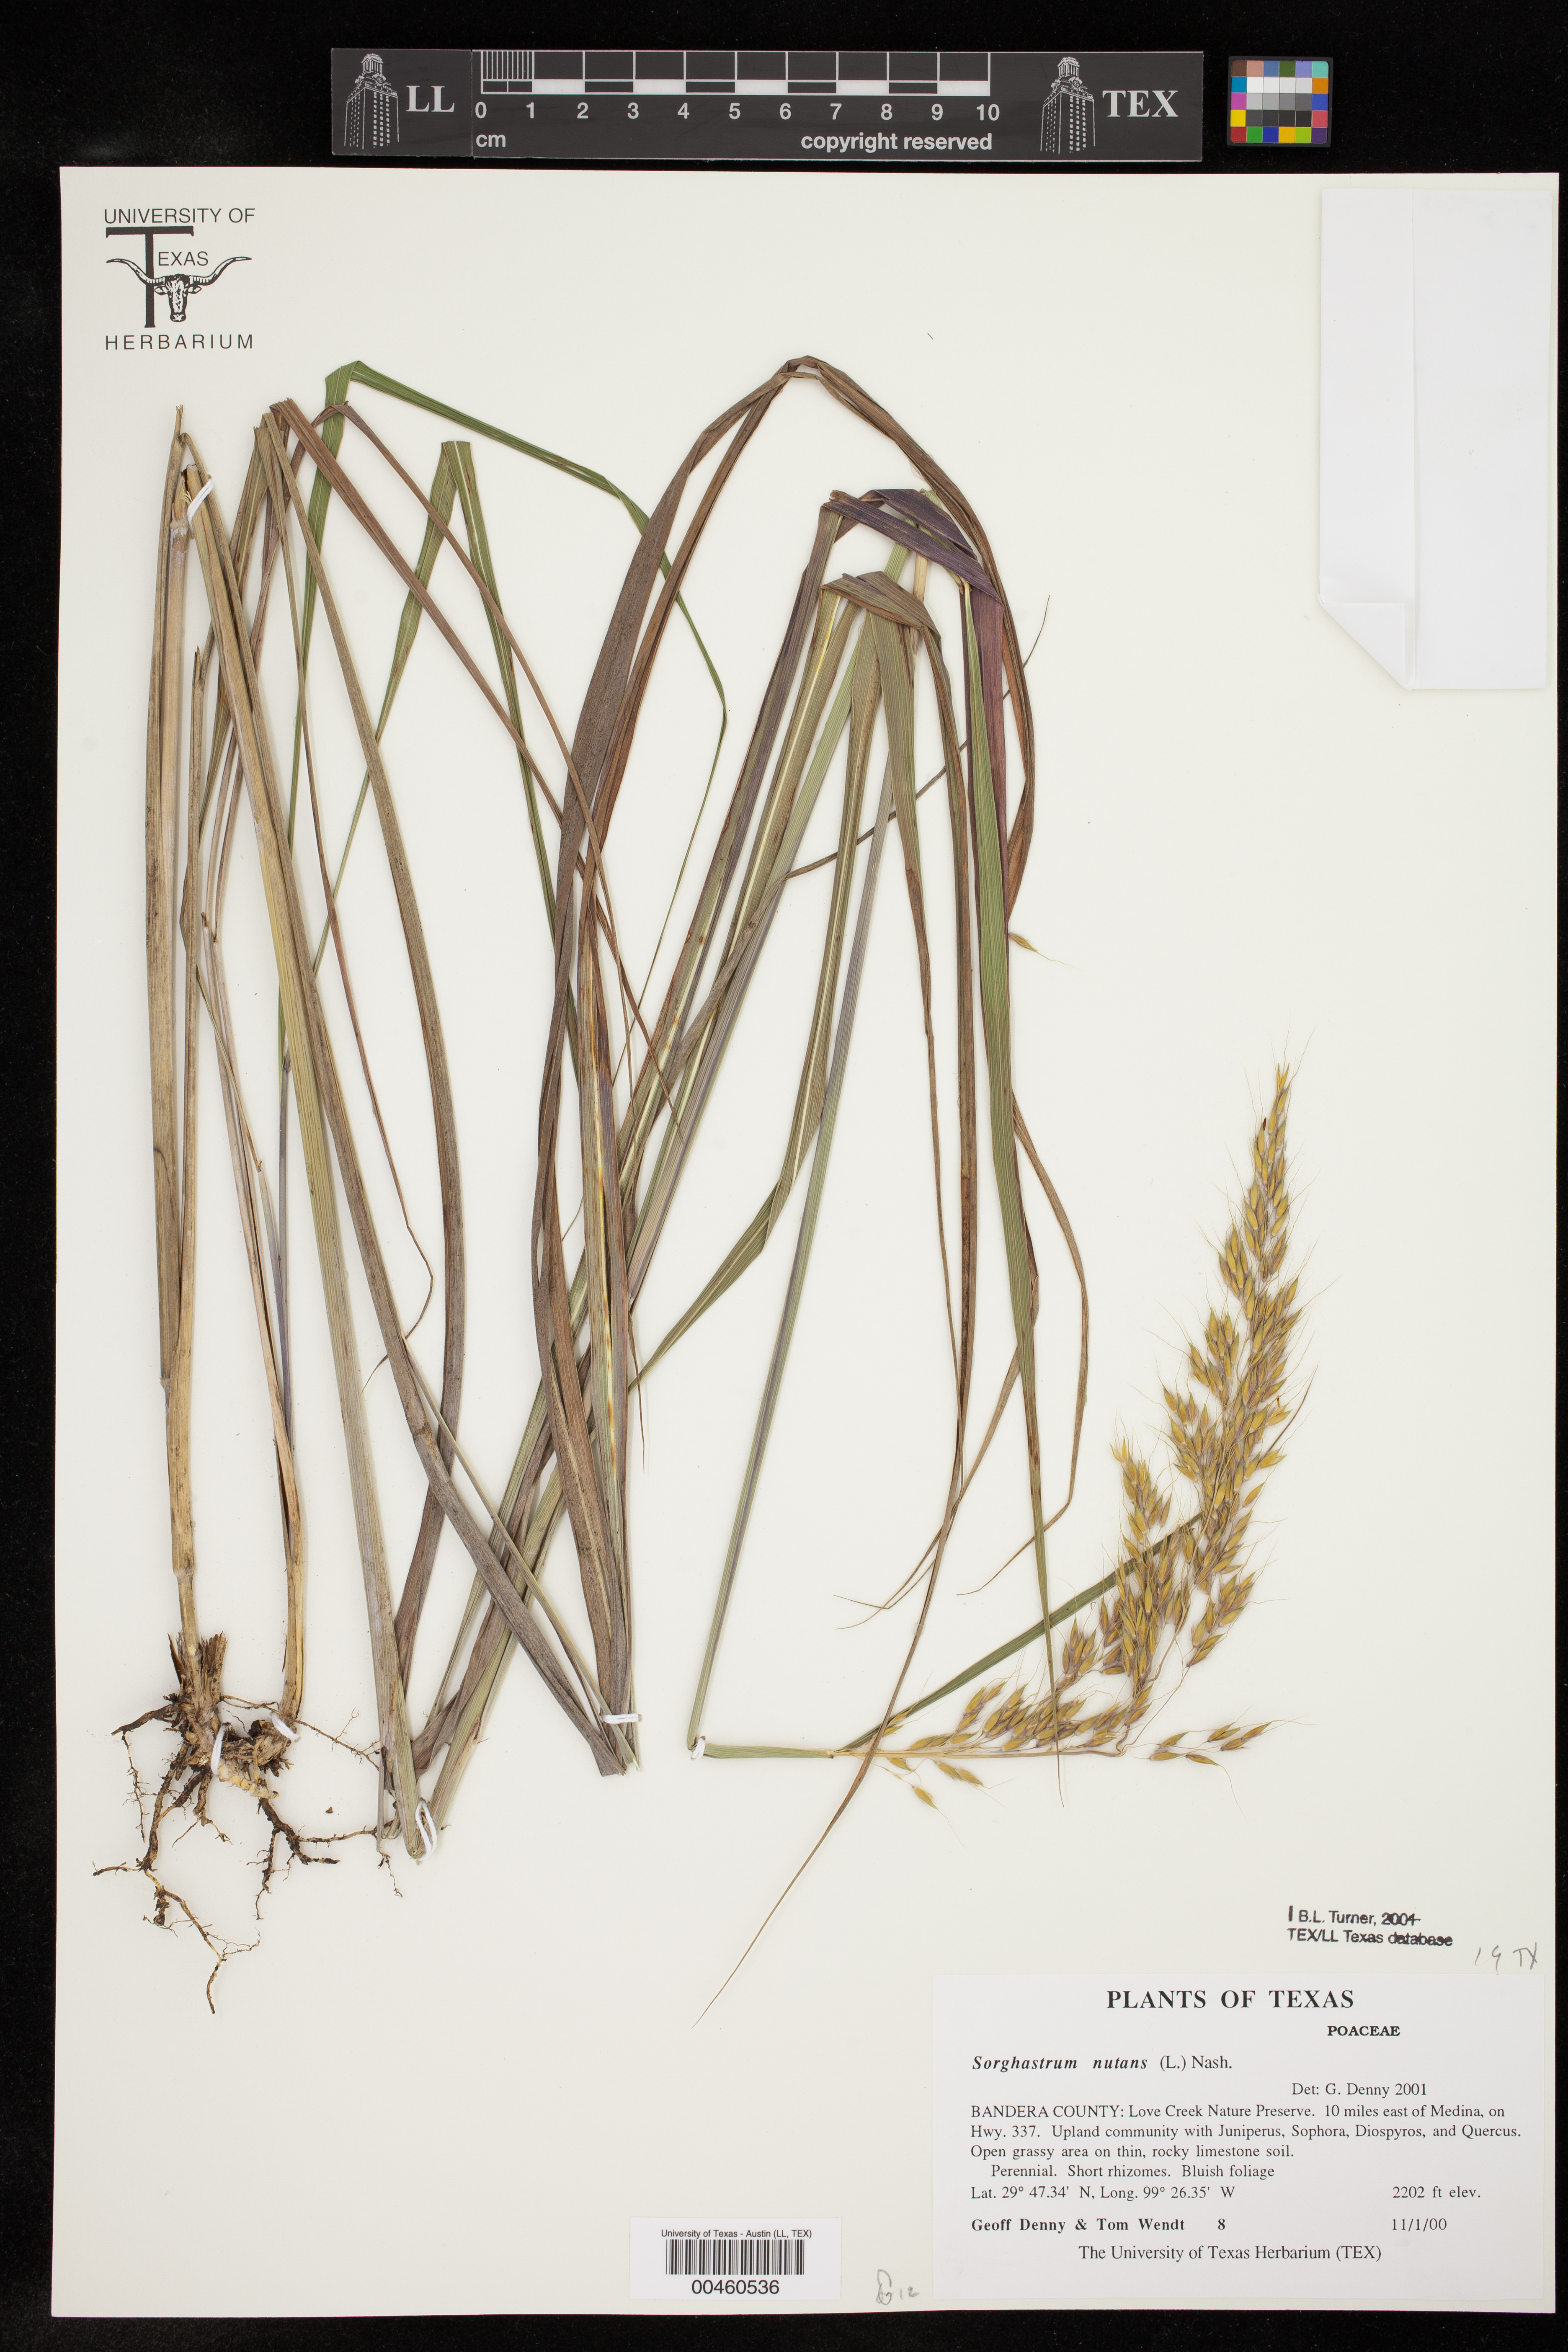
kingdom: Plantae
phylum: Tracheophyta
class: Liliopsida
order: Poales
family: Poaceae
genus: Sorghastrum
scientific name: Sorghastrum nutans
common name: Indian grass
